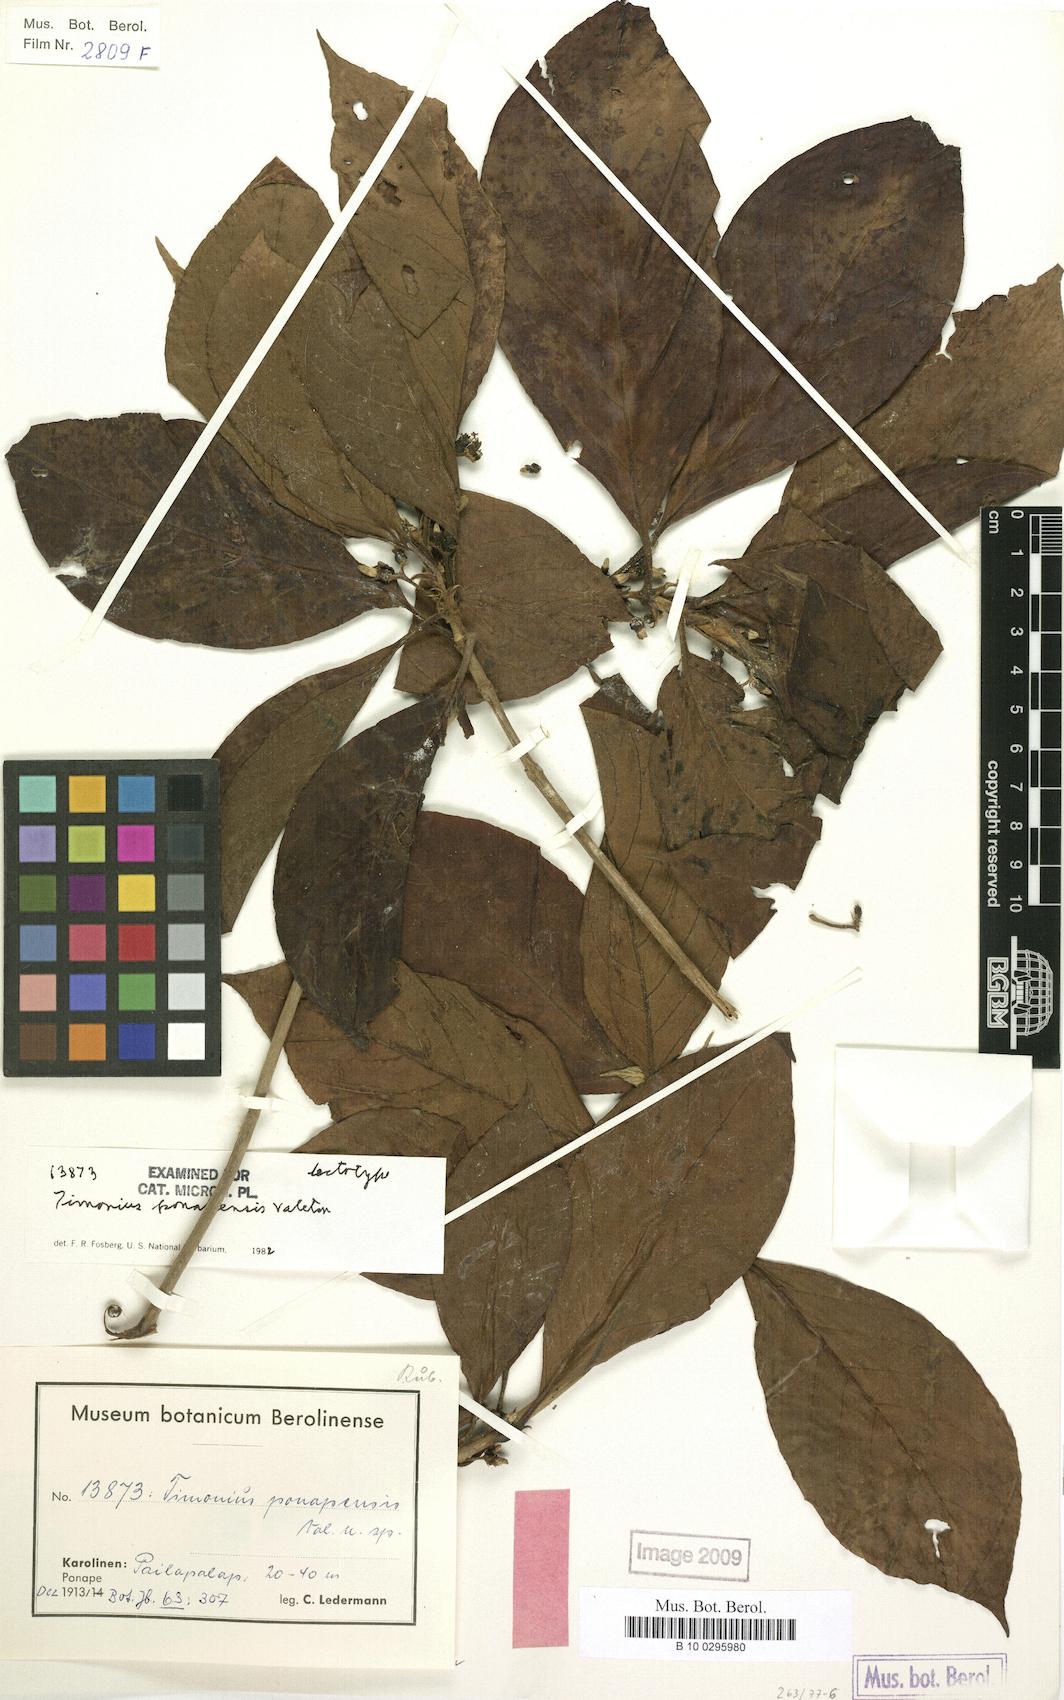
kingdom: Plantae
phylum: Tracheophyta
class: Magnoliopsida
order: Gentianales
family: Rubiaceae
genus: Timonius
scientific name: Timonius ponapensis
